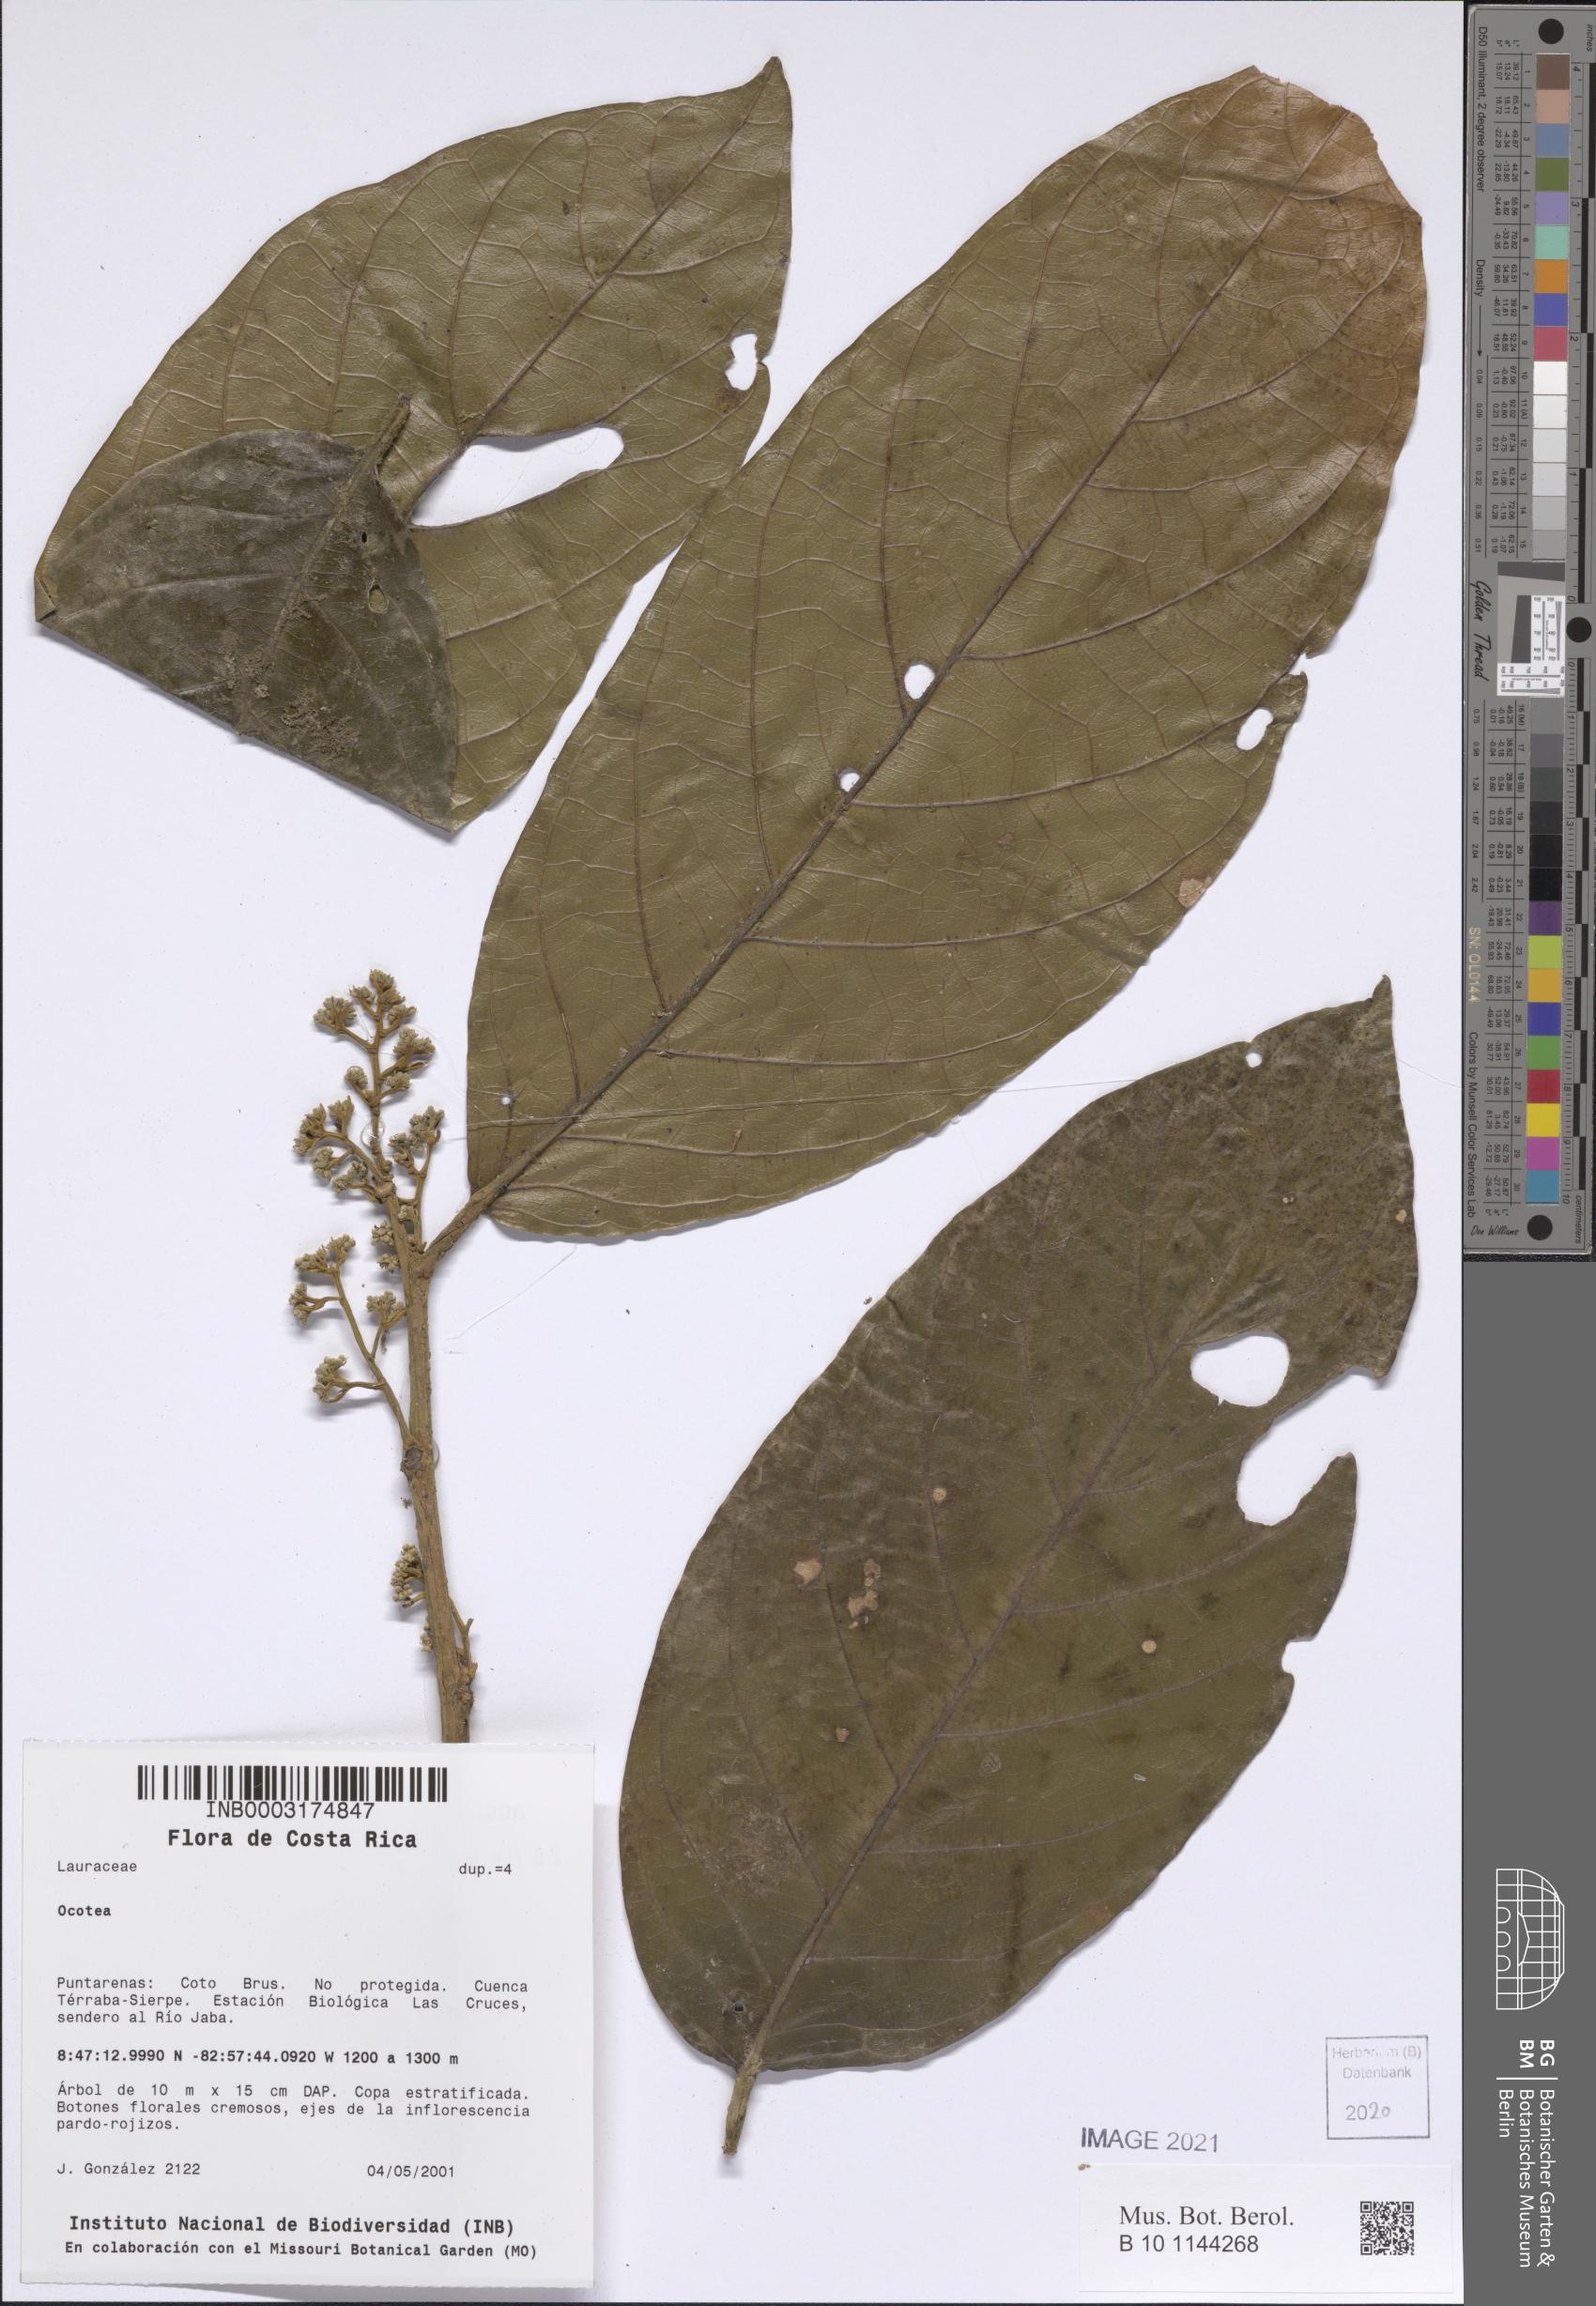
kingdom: Plantae
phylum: Tracheophyta
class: Magnoliopsida
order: Laurales
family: Lauraceae
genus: Ocotea
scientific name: Ocotea
